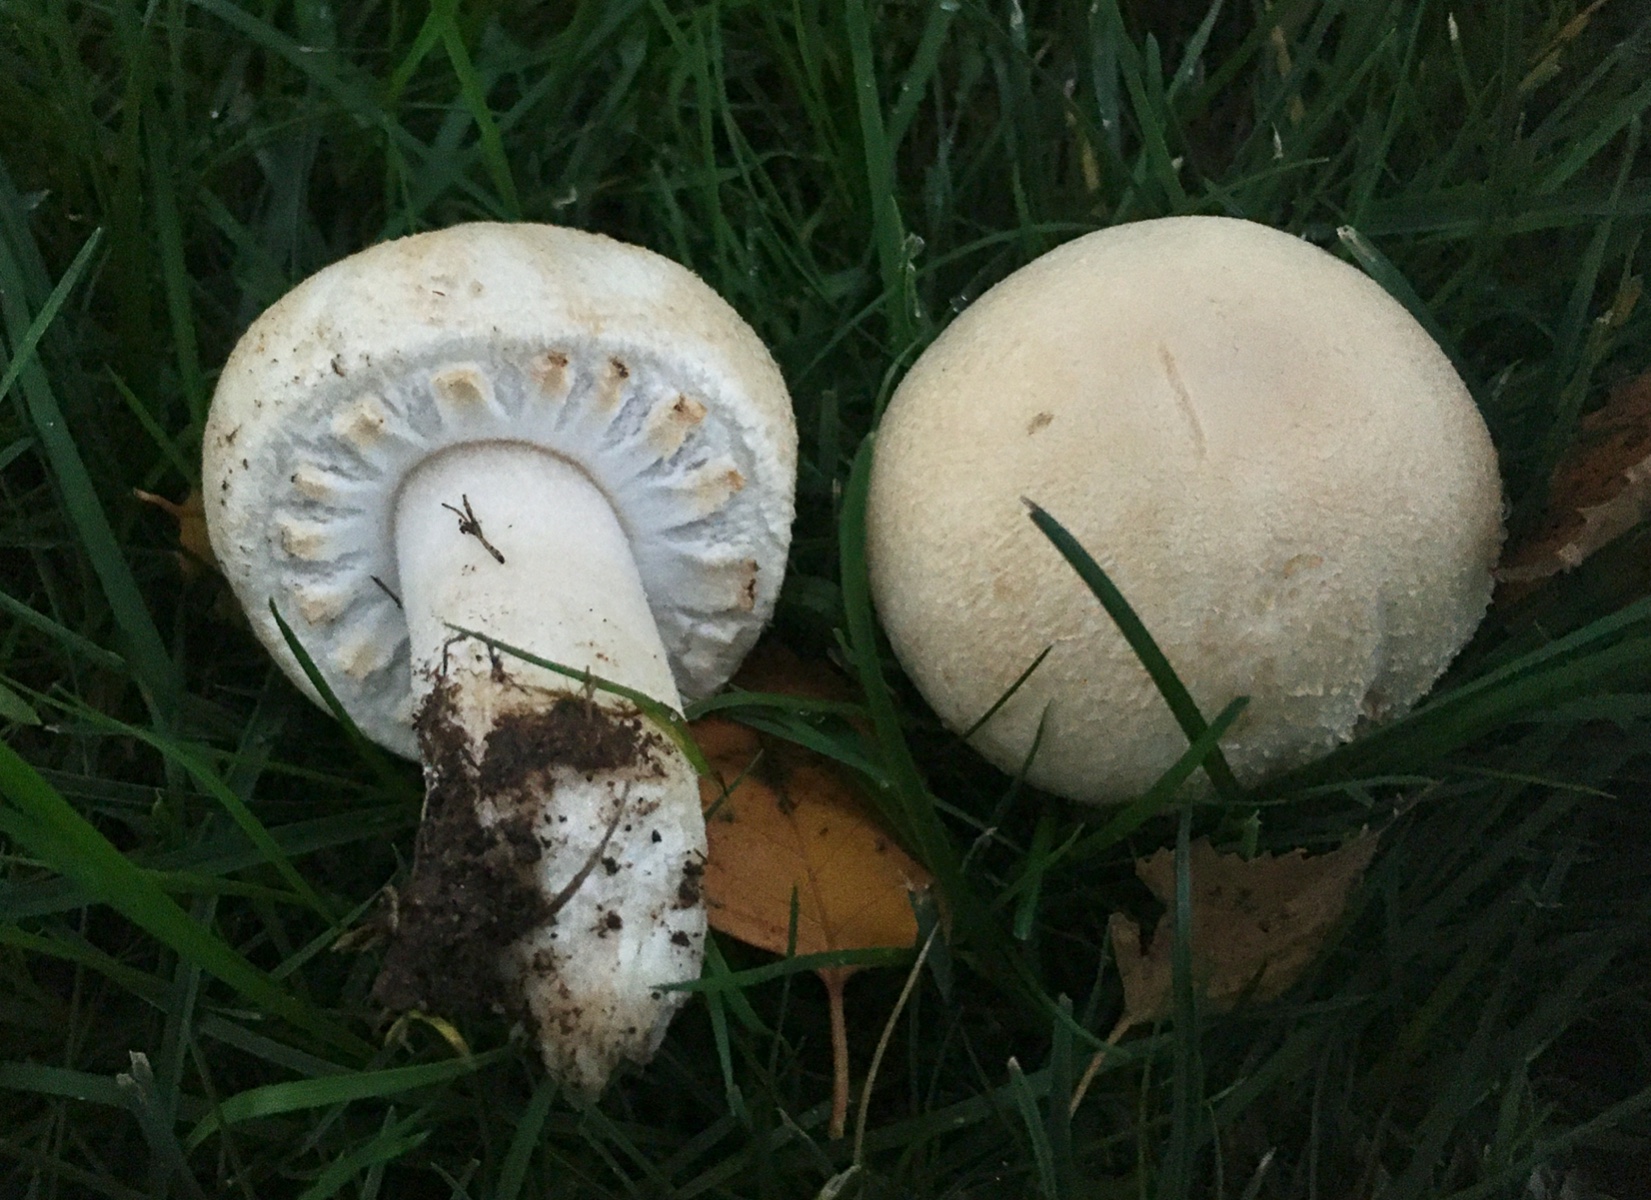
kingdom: Fungi
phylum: Basidiomycota
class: Agaricomycetes
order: Agaricales
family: Agaricaceae
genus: Agaricus
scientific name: Agaricus arvensis
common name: ager-champignon
